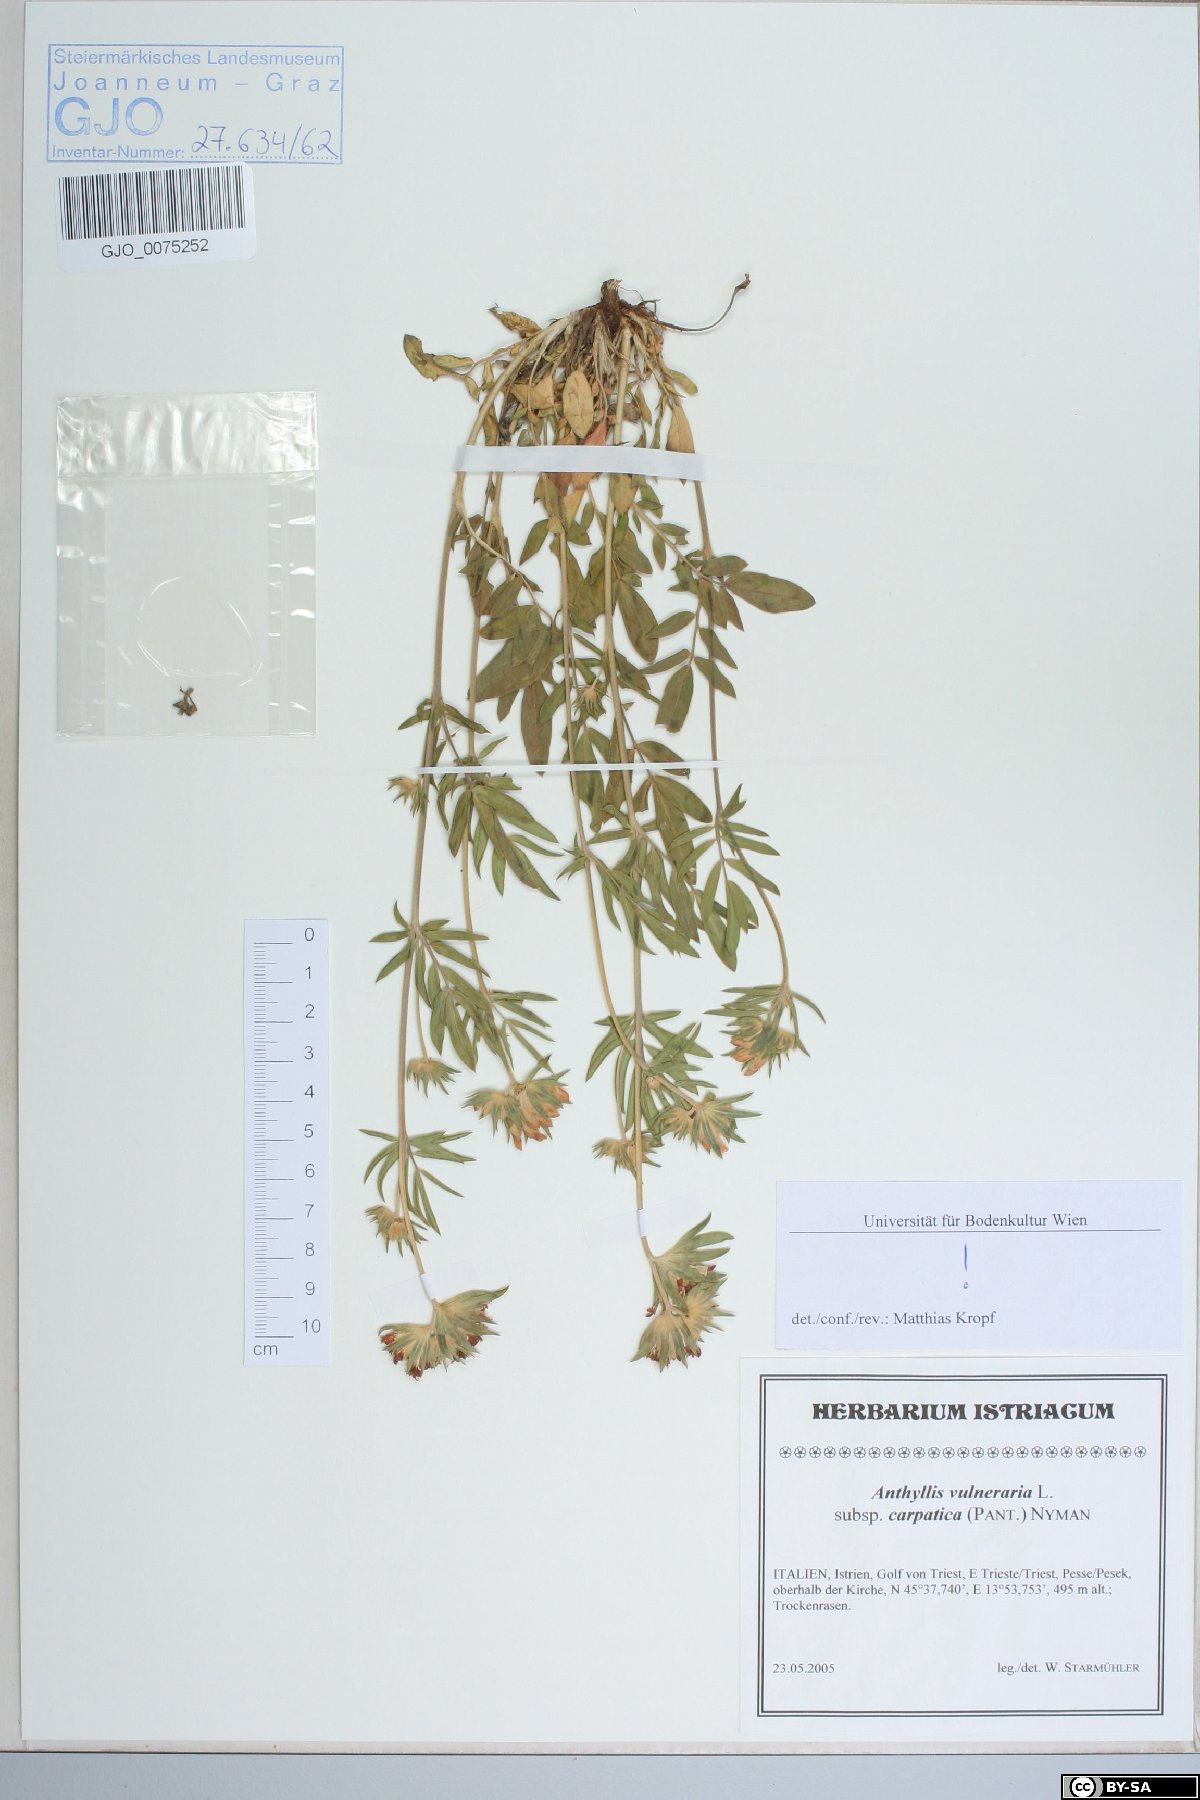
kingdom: Plantae
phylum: Tracheophyta
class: Magnoliopsida
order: Fabales
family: Fabaceae
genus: Anthyllis
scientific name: Anthyllis vulneraria
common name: Kidney vetch
